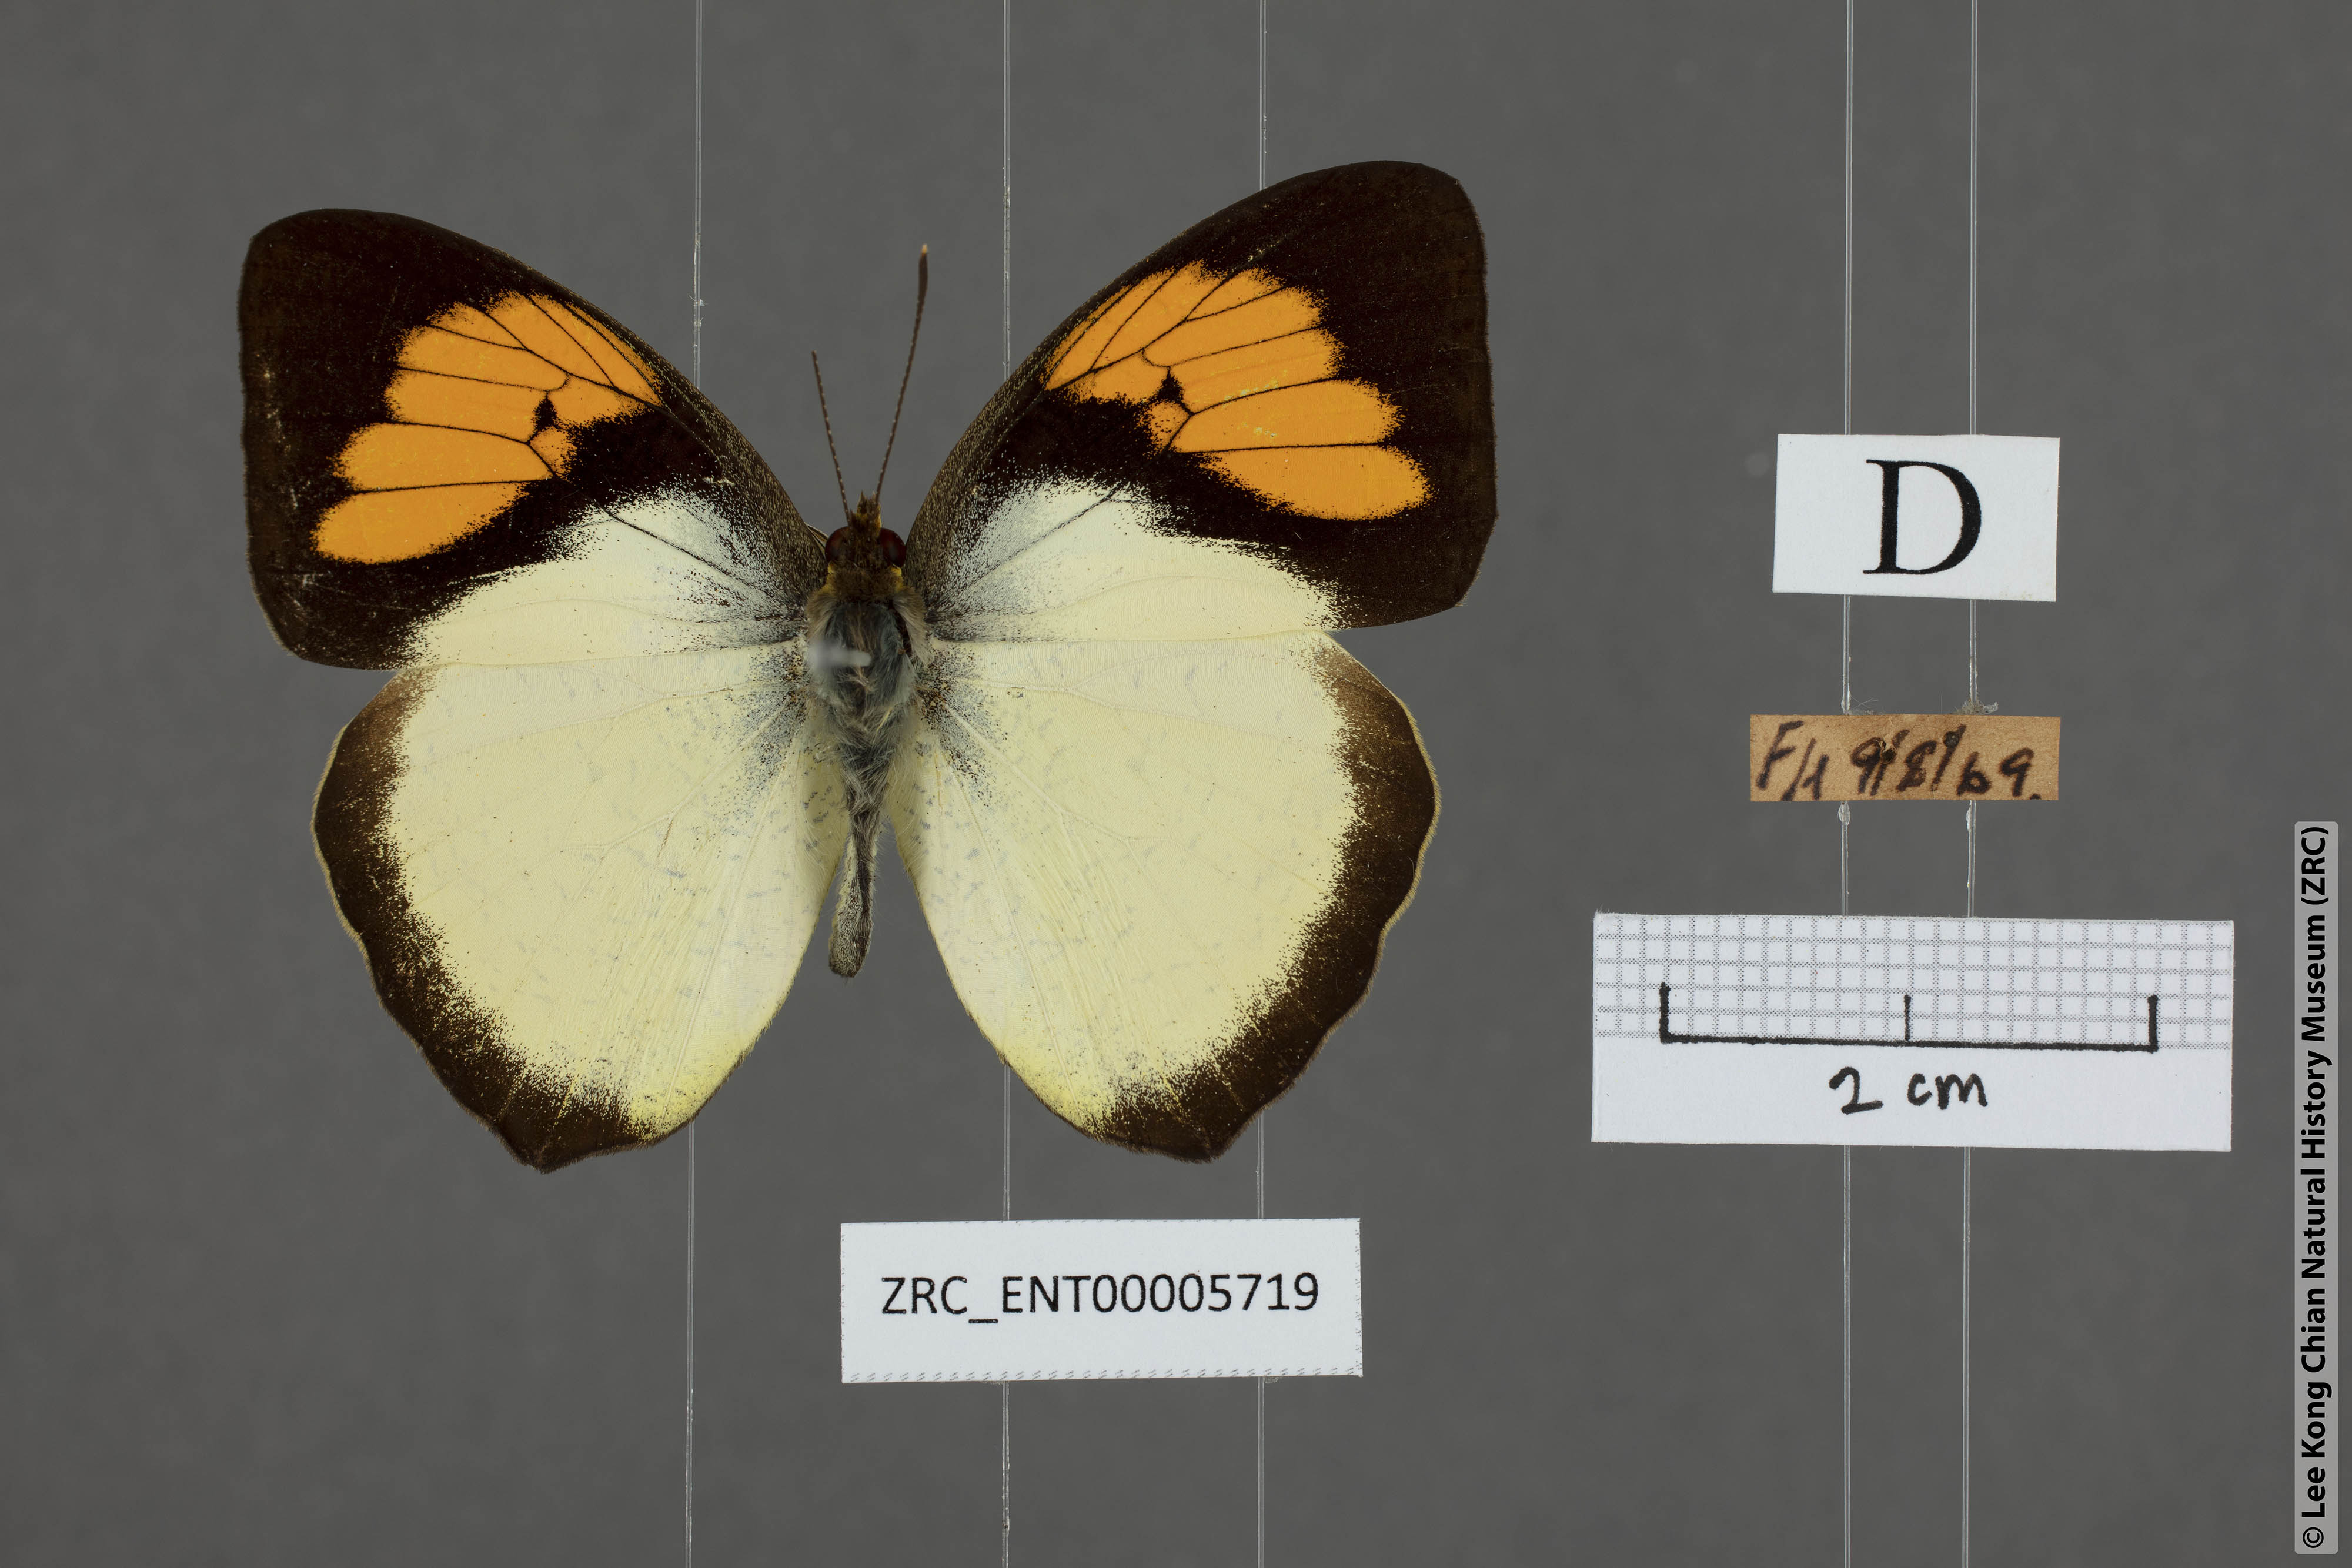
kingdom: Animalia
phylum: Arthropoda
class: Insecta
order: Lepidoptera
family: Pieridae
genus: Ixias
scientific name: Ixias pyrene
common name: Yellow orange tip
